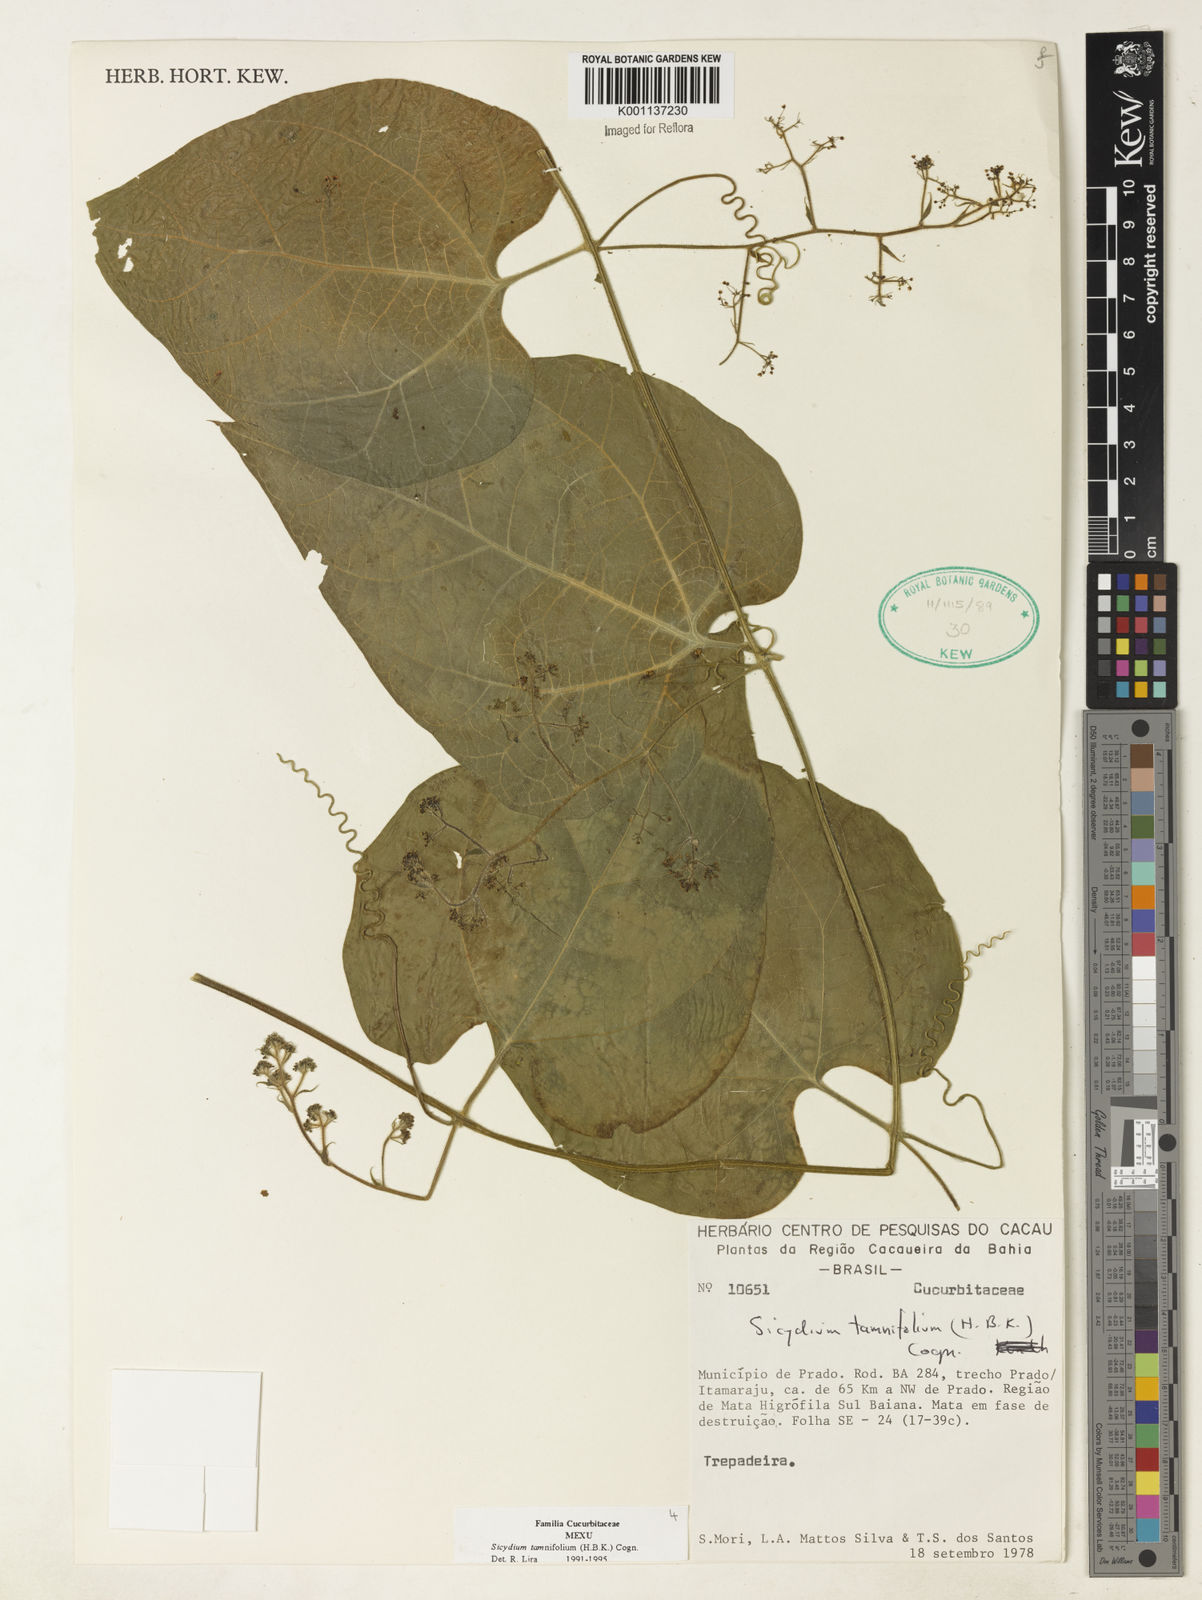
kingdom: Plantae
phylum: Tracheophyta
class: Magnoliopsida
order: Cucurbitales
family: Cucurbitaceae
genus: Sicydium
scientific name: Sicydium tamnifolium
